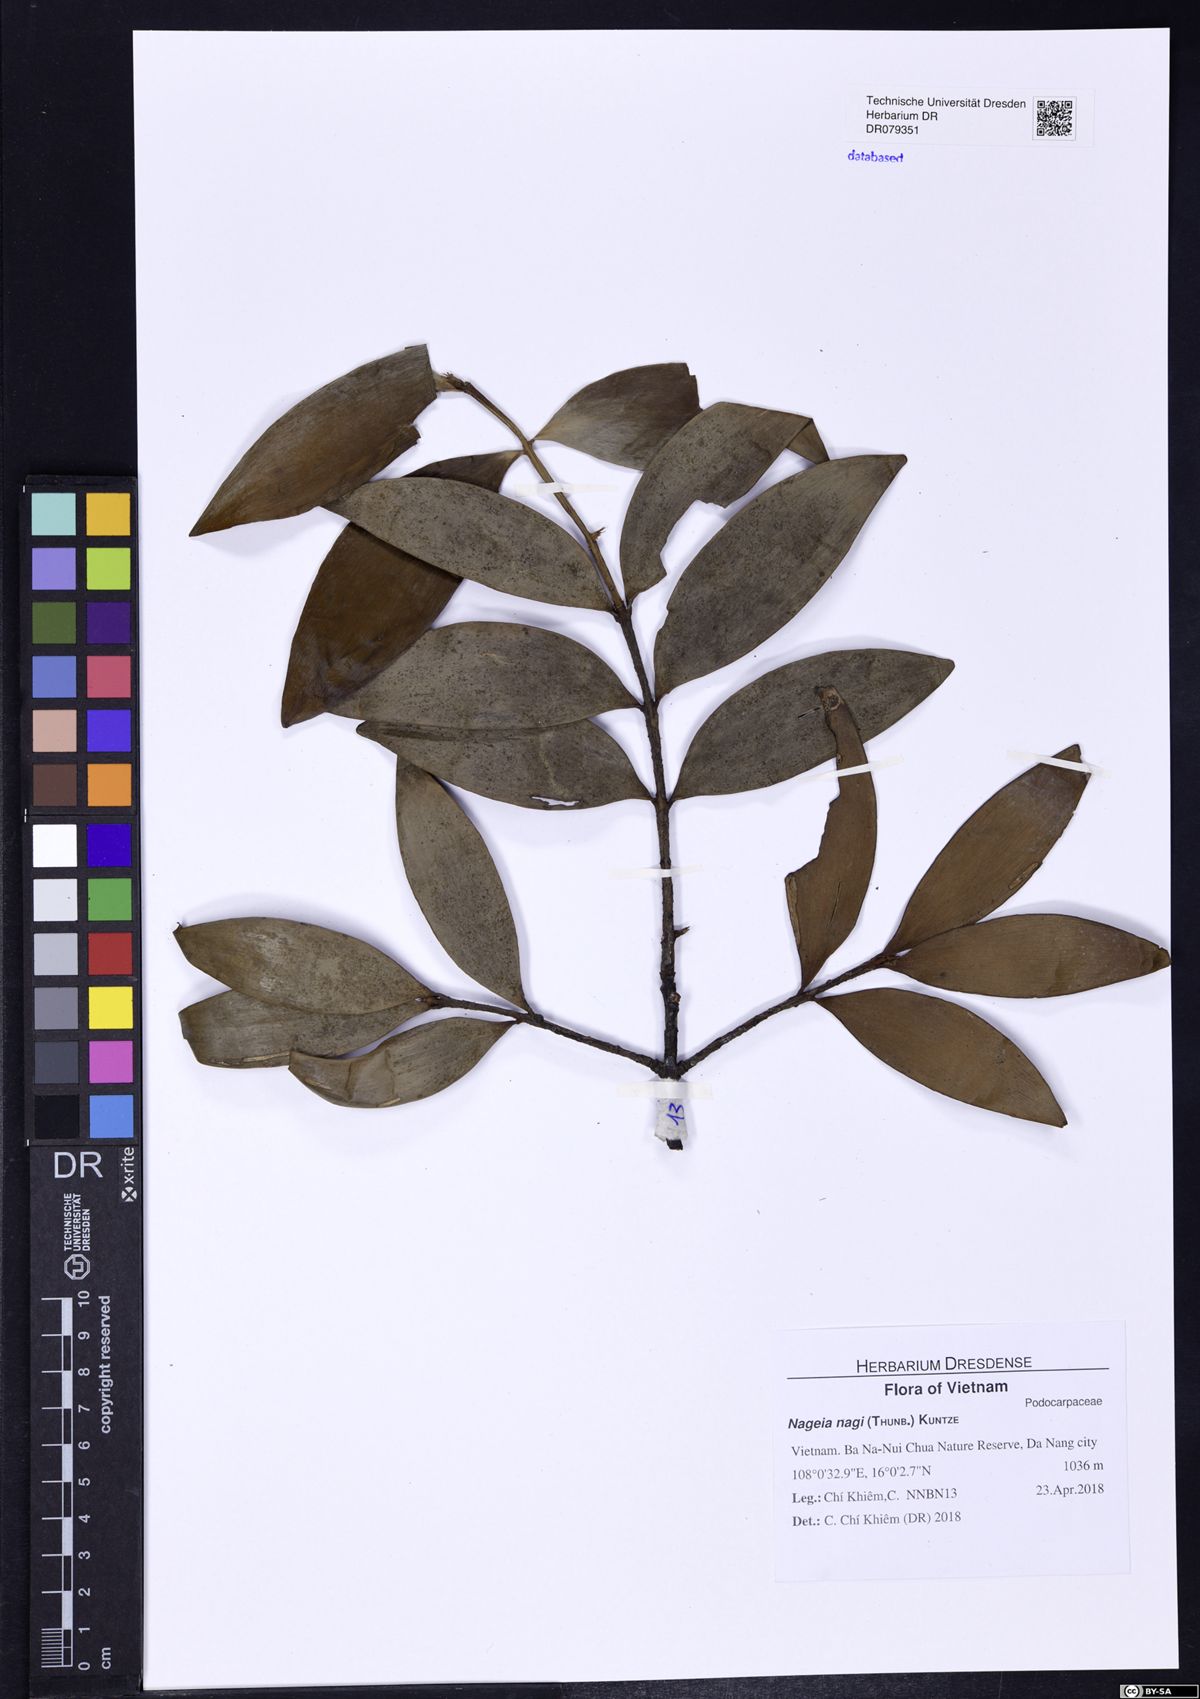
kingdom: Plantae
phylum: Tracheophyta
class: Pinopsida
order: Pinales
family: Podocarpaceae
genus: Nageia
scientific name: Nageia nagi
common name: Kaphal
